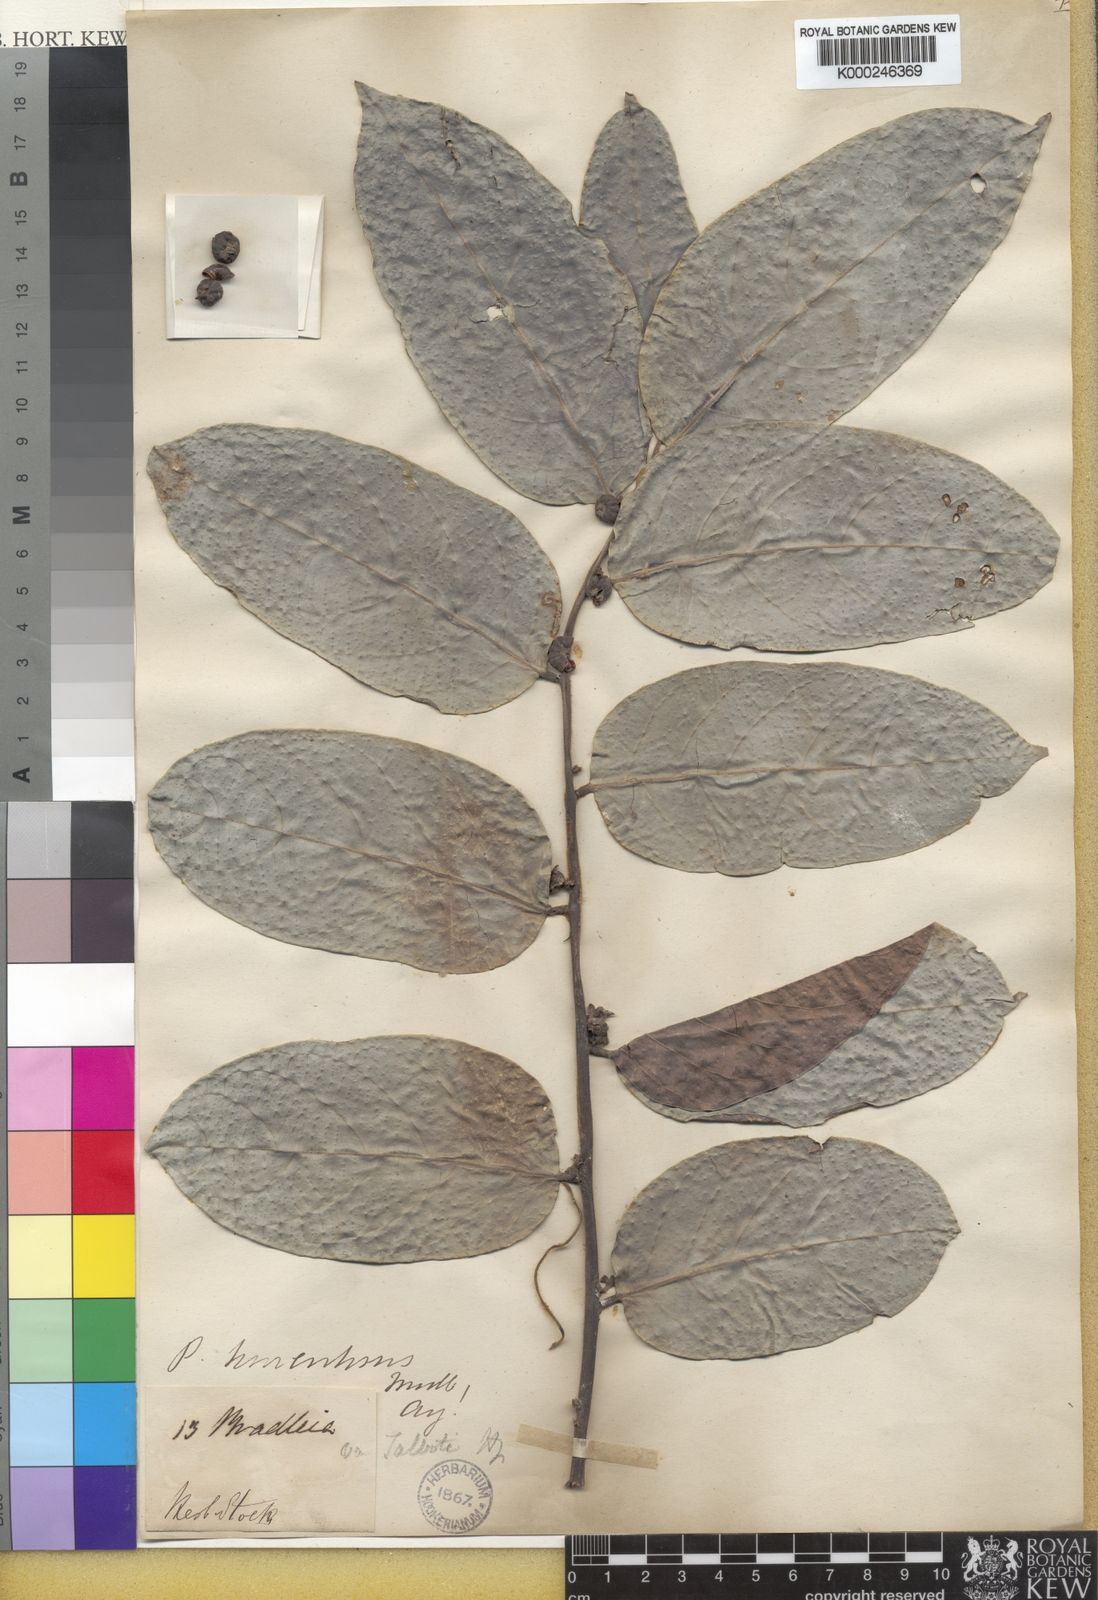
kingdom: Plantae
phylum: Tracheophyta
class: Magnoliopsida
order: Malpighiales
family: Phyllanthaceae
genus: Glochidion
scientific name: Glochidion zeylanicum
